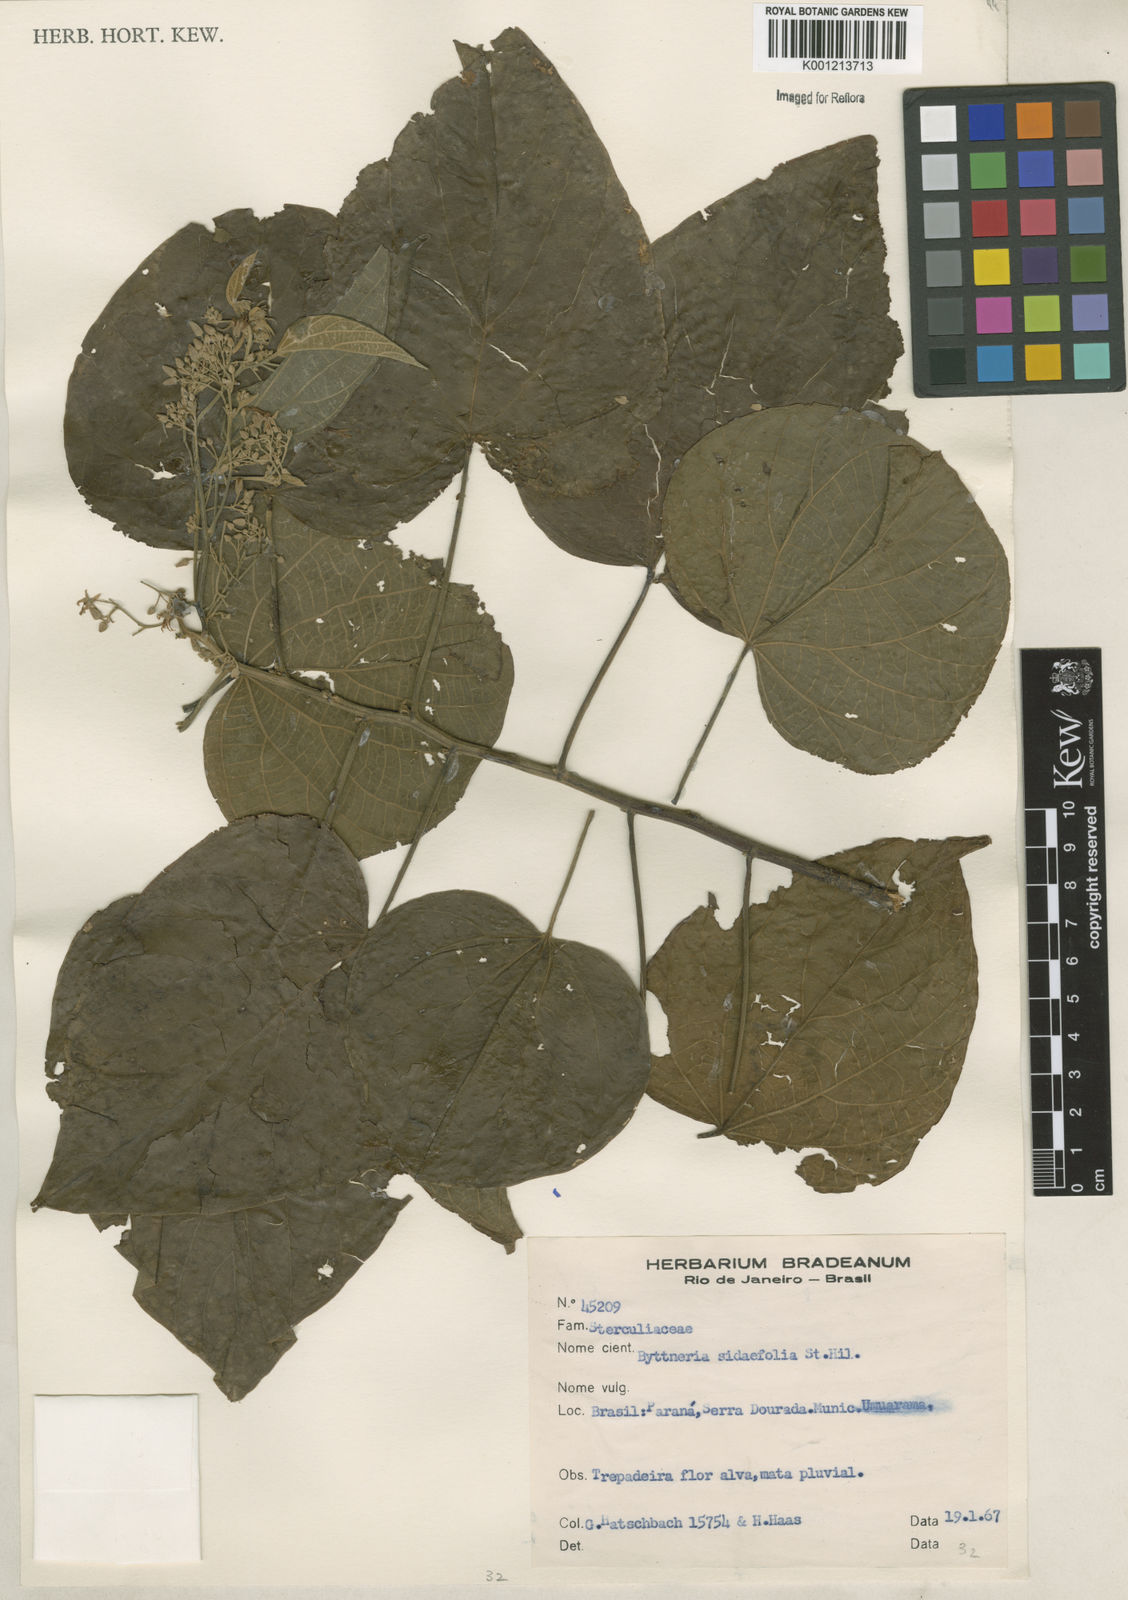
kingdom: Plantae
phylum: Tracheophyta
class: Magnoliopsida
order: Malvales
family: Malvaceae
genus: Byttneria
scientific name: Byttneria catalpifolia
